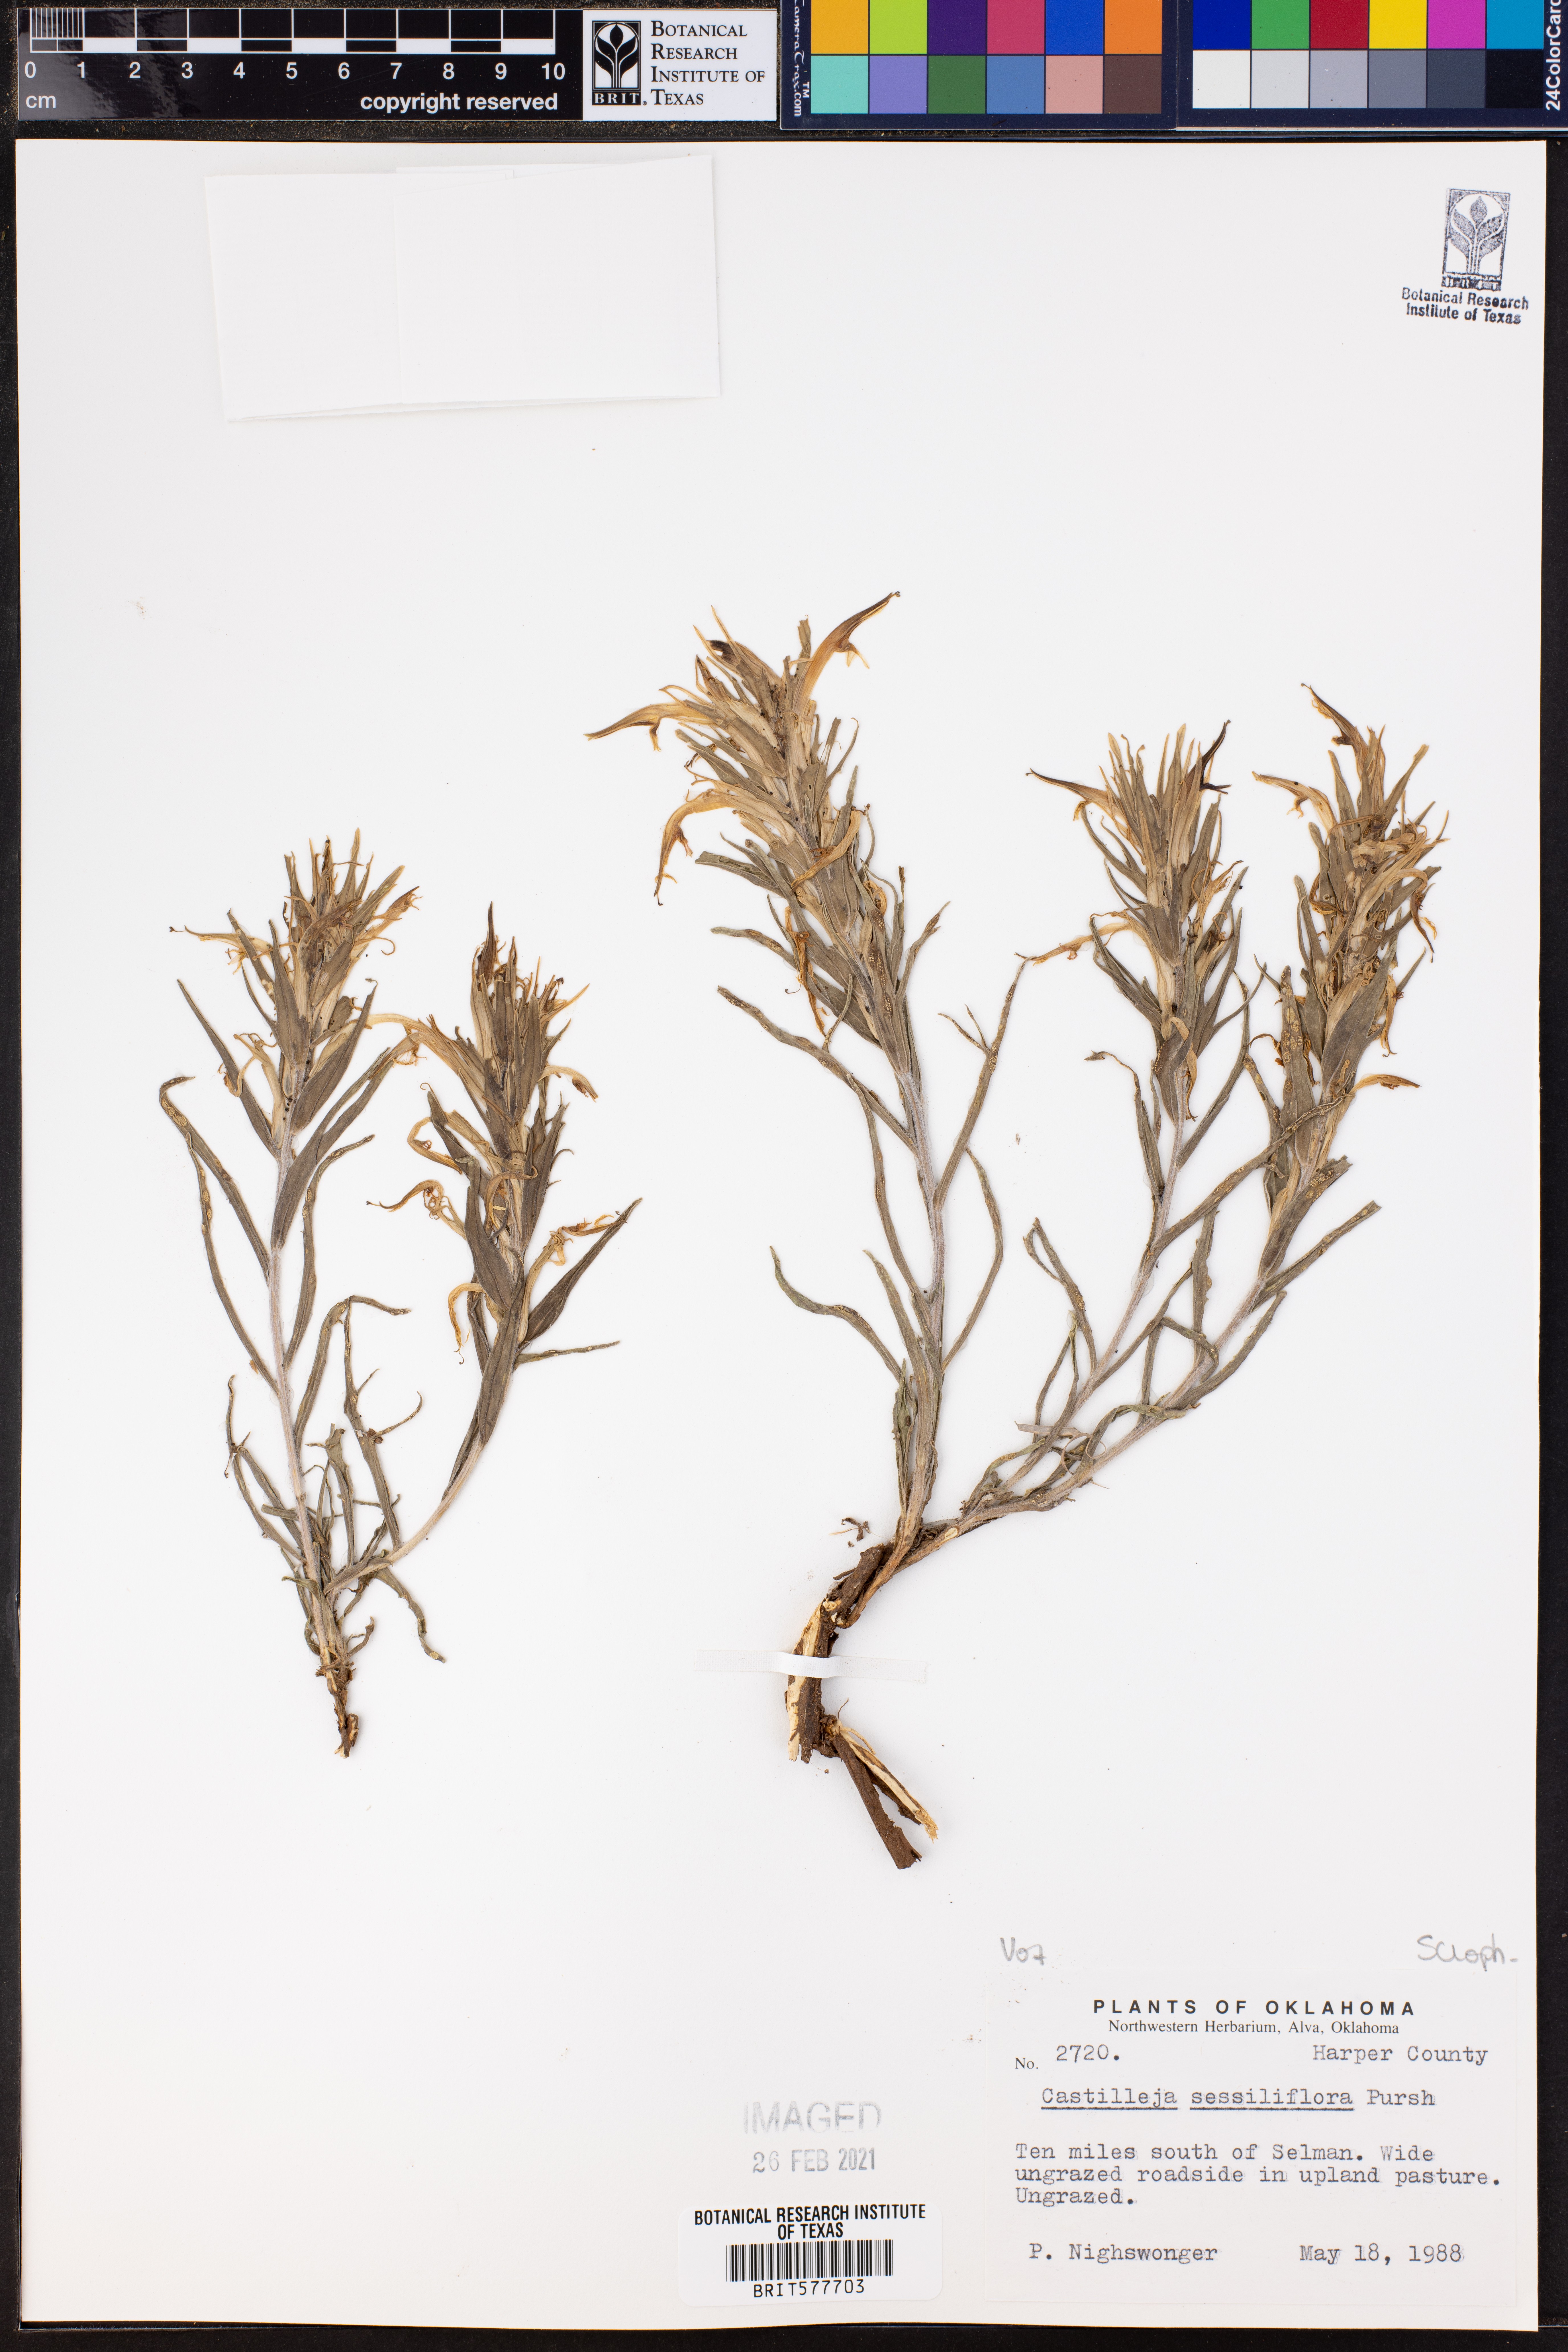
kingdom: Plantae
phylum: Tracheophyta
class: Magnoliopsida
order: Lamiales
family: Orobanchaceae
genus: Castilleja
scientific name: Castilleja sessiliflora
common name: Downy paintbrush
